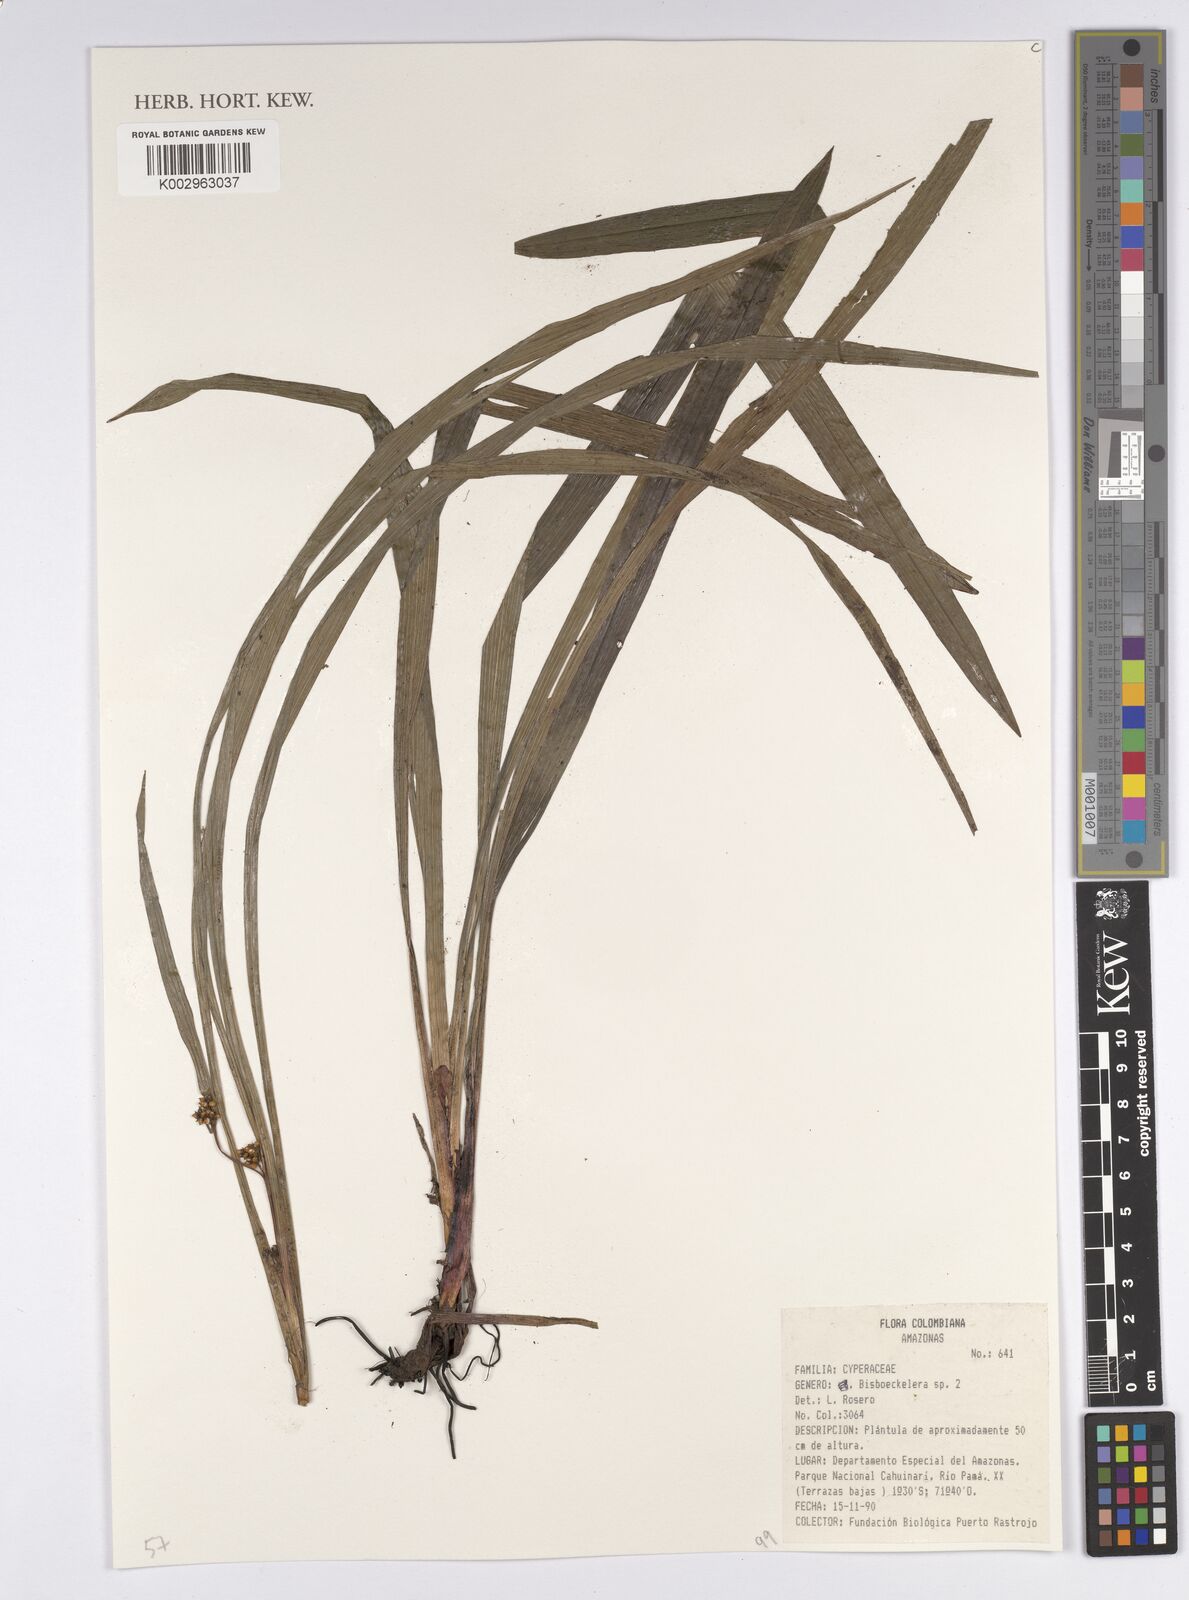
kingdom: Plantae
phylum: Tracheophyta
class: Liliopsida
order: Poales
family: Cyperaceae
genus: Bisboeckelera
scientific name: Bisboeckelera
